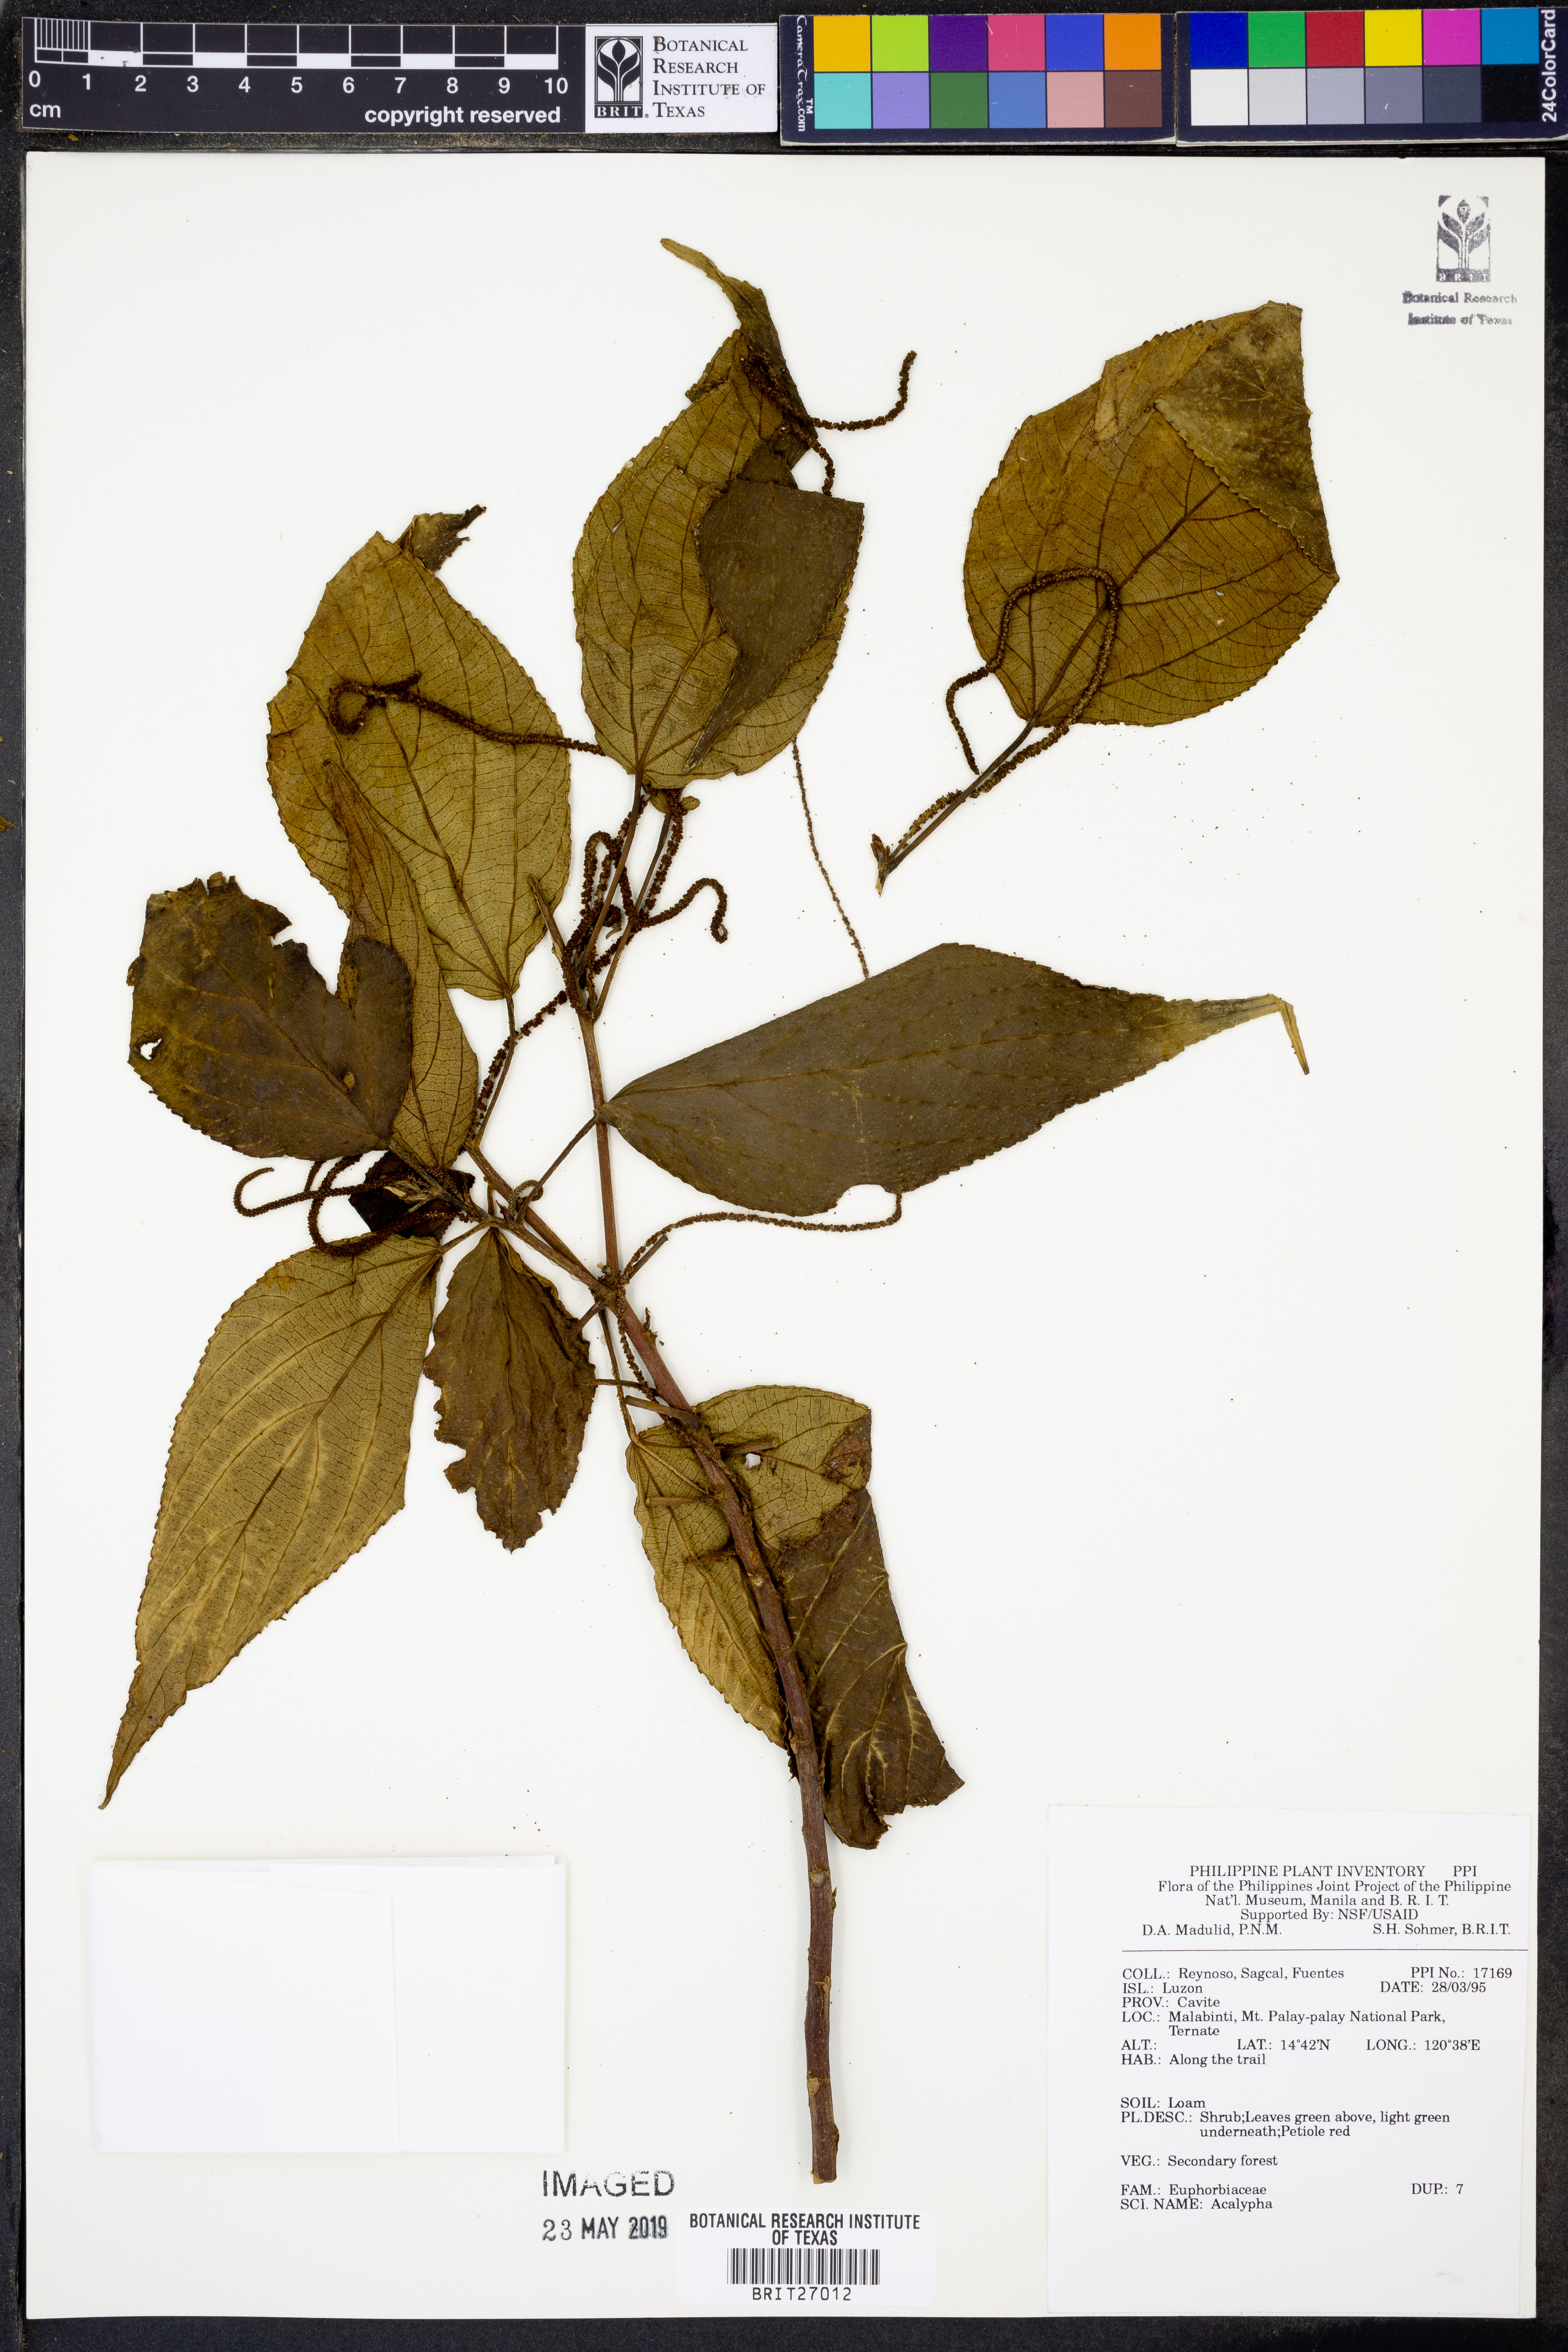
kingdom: Plantae
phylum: Tracheophyta
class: Magnoliopsida
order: Malpighiales
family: Euphorbiaceae
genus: Acalypha
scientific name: Acalypha
